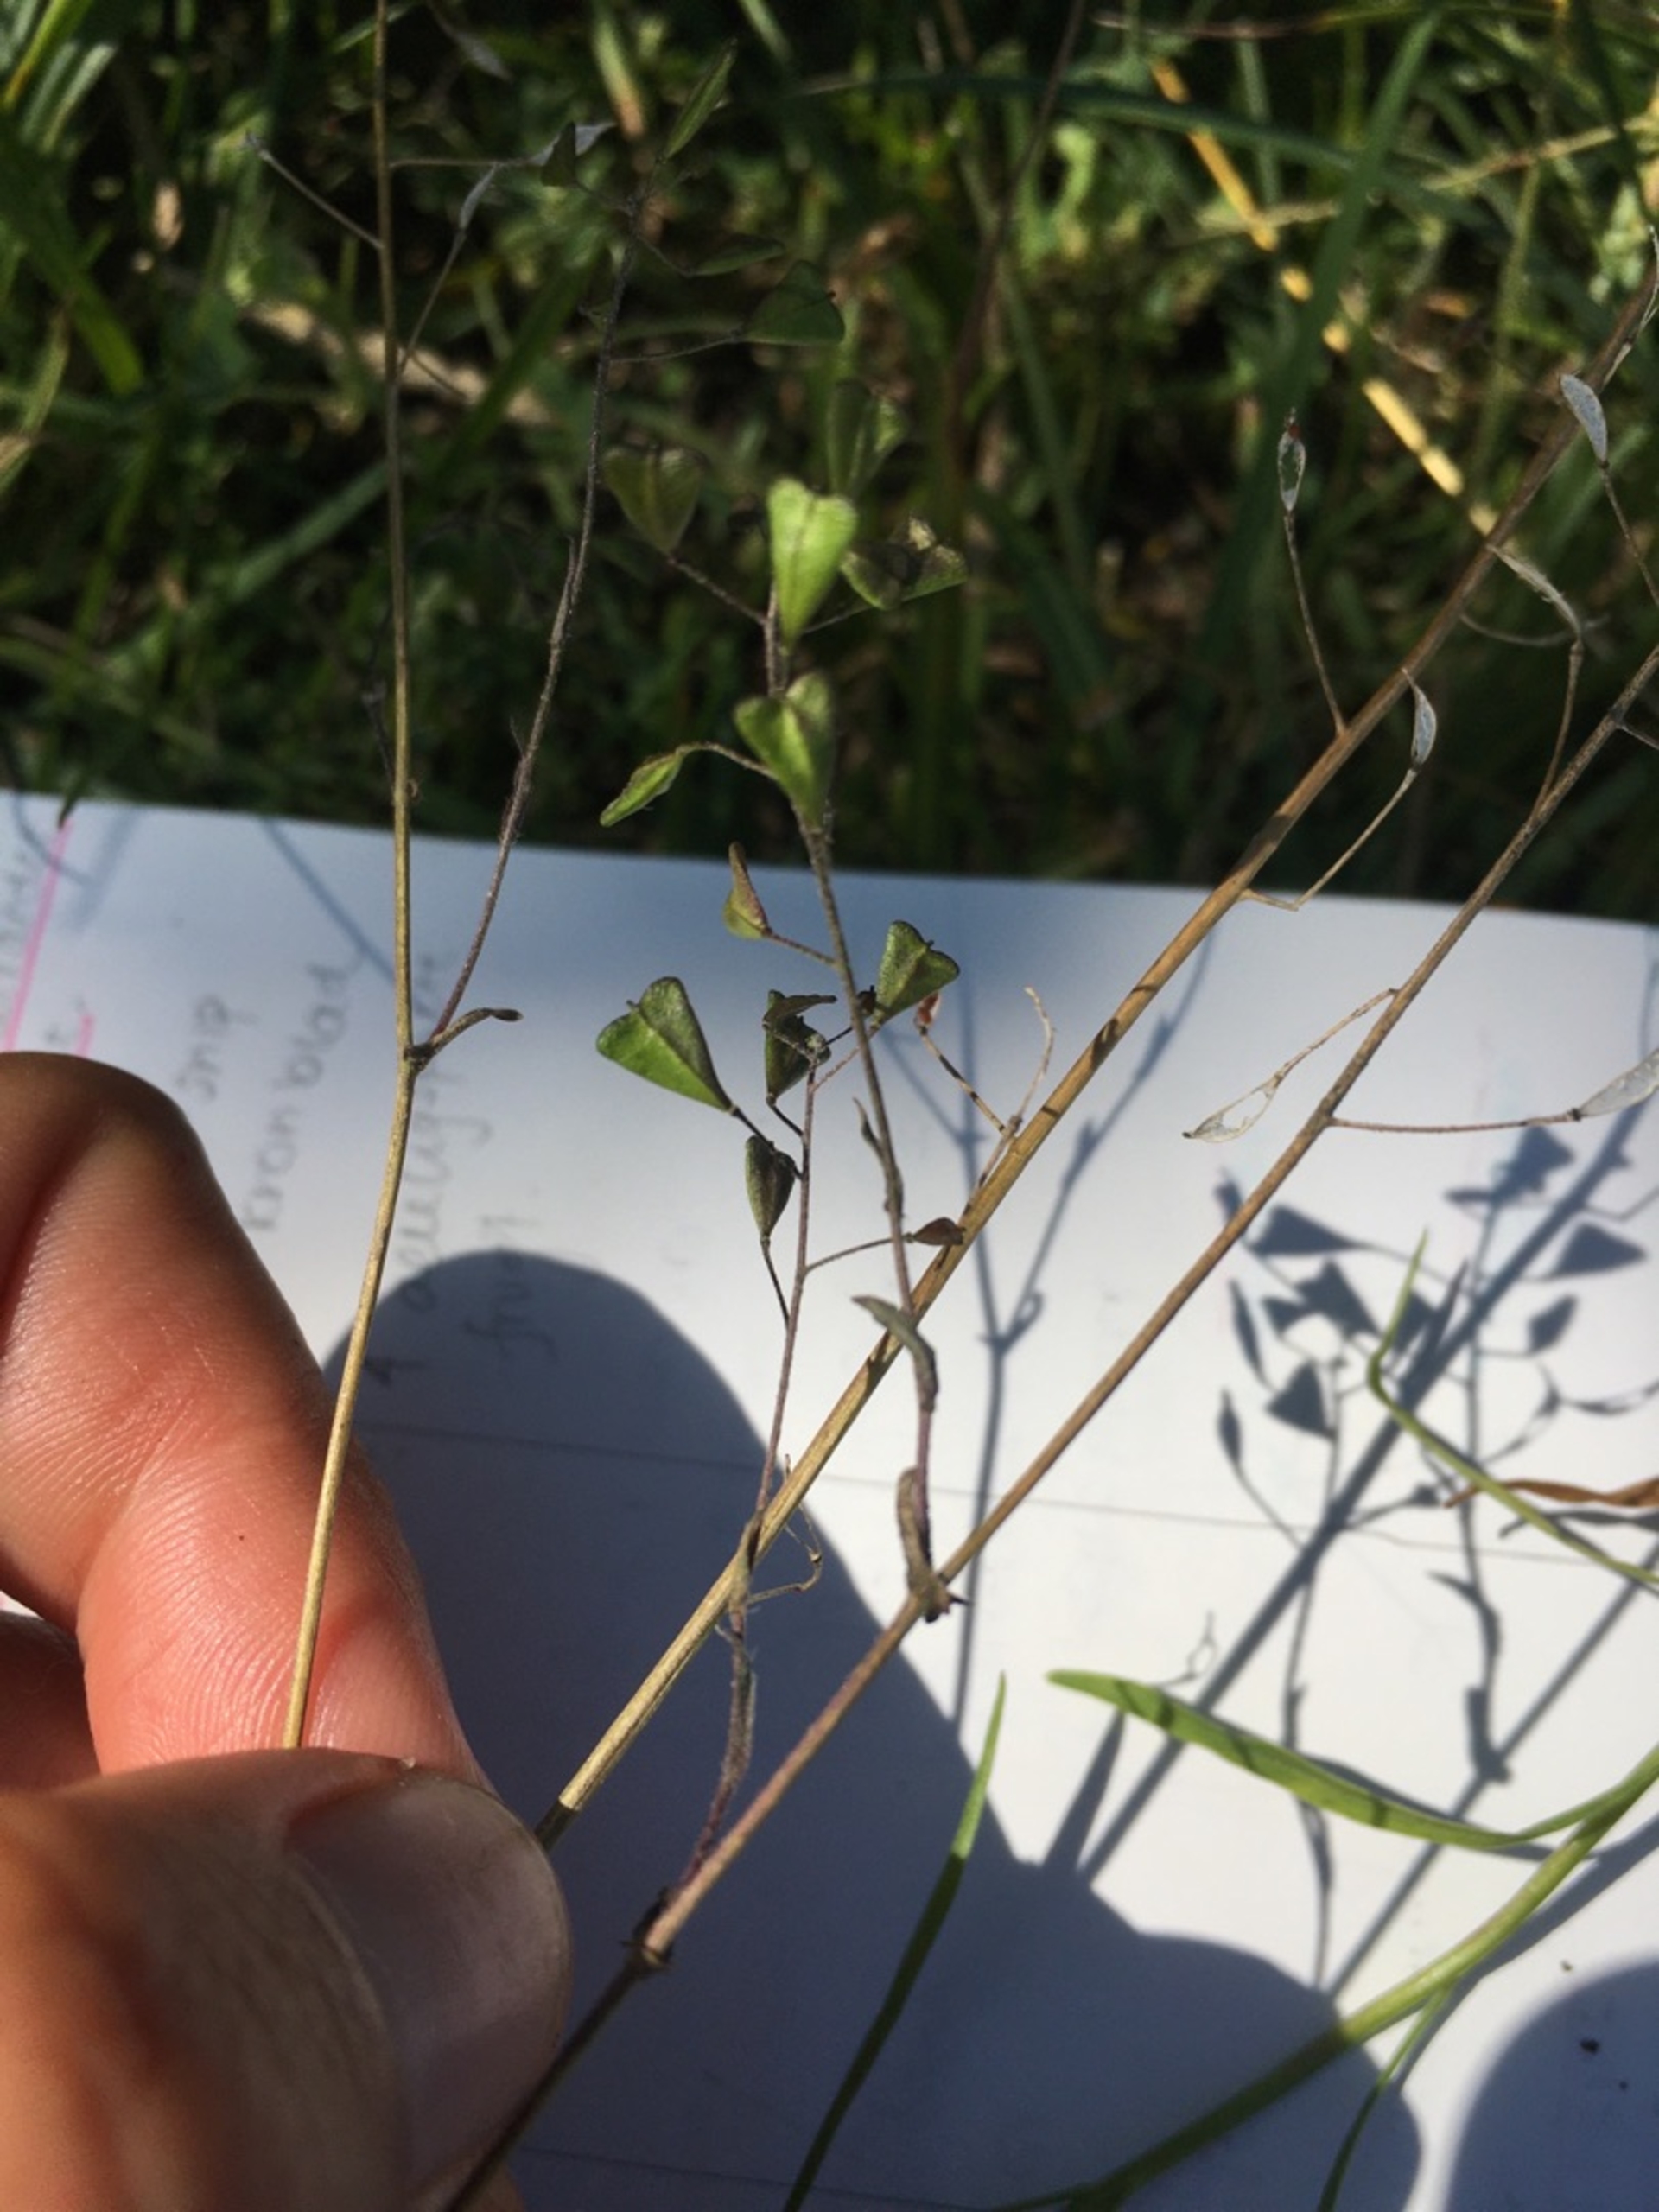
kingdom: Plantae
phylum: Tracheophyta
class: Magnoliopsida
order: Brassicales
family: Brassicaceae
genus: Capsella
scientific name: Capsella bursa-pastoris
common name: Hyrdetaske
